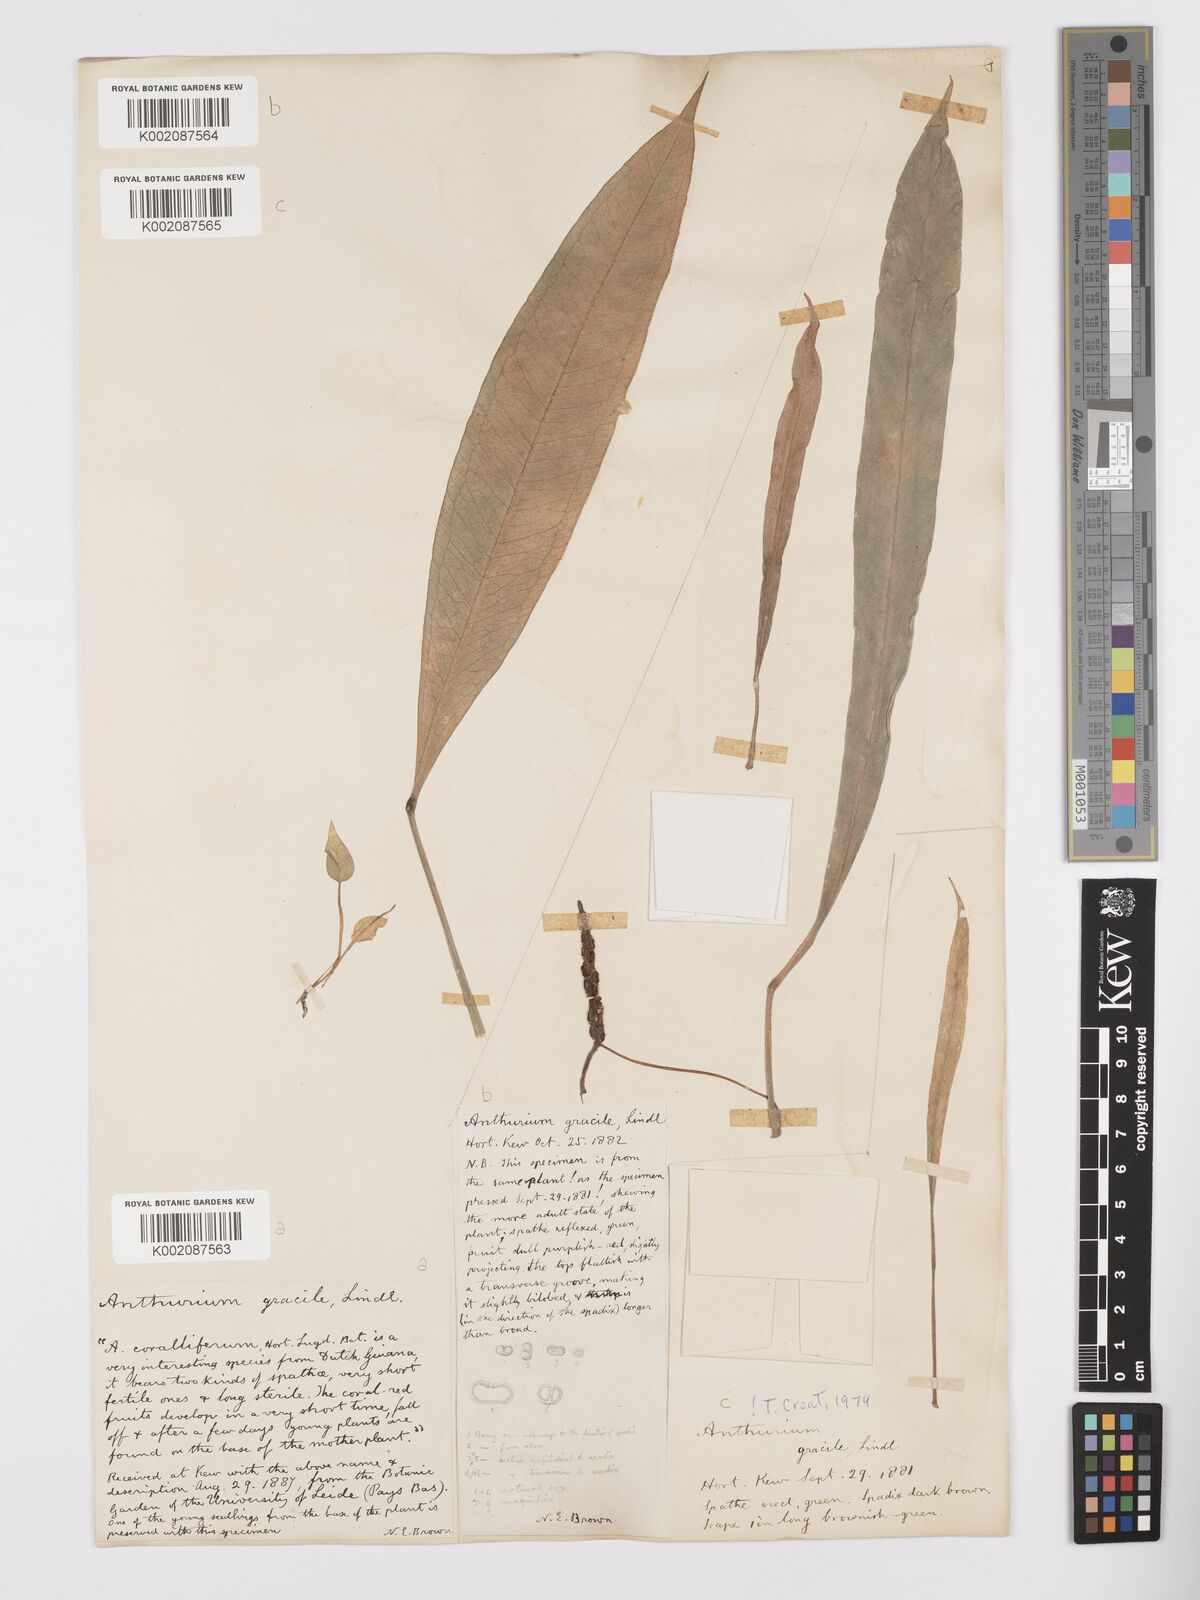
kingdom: Plantae
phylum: Tracheophyta
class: Liliopsida
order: Alismatales
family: Araceae
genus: Anthurium
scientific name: Anthurium gracile
